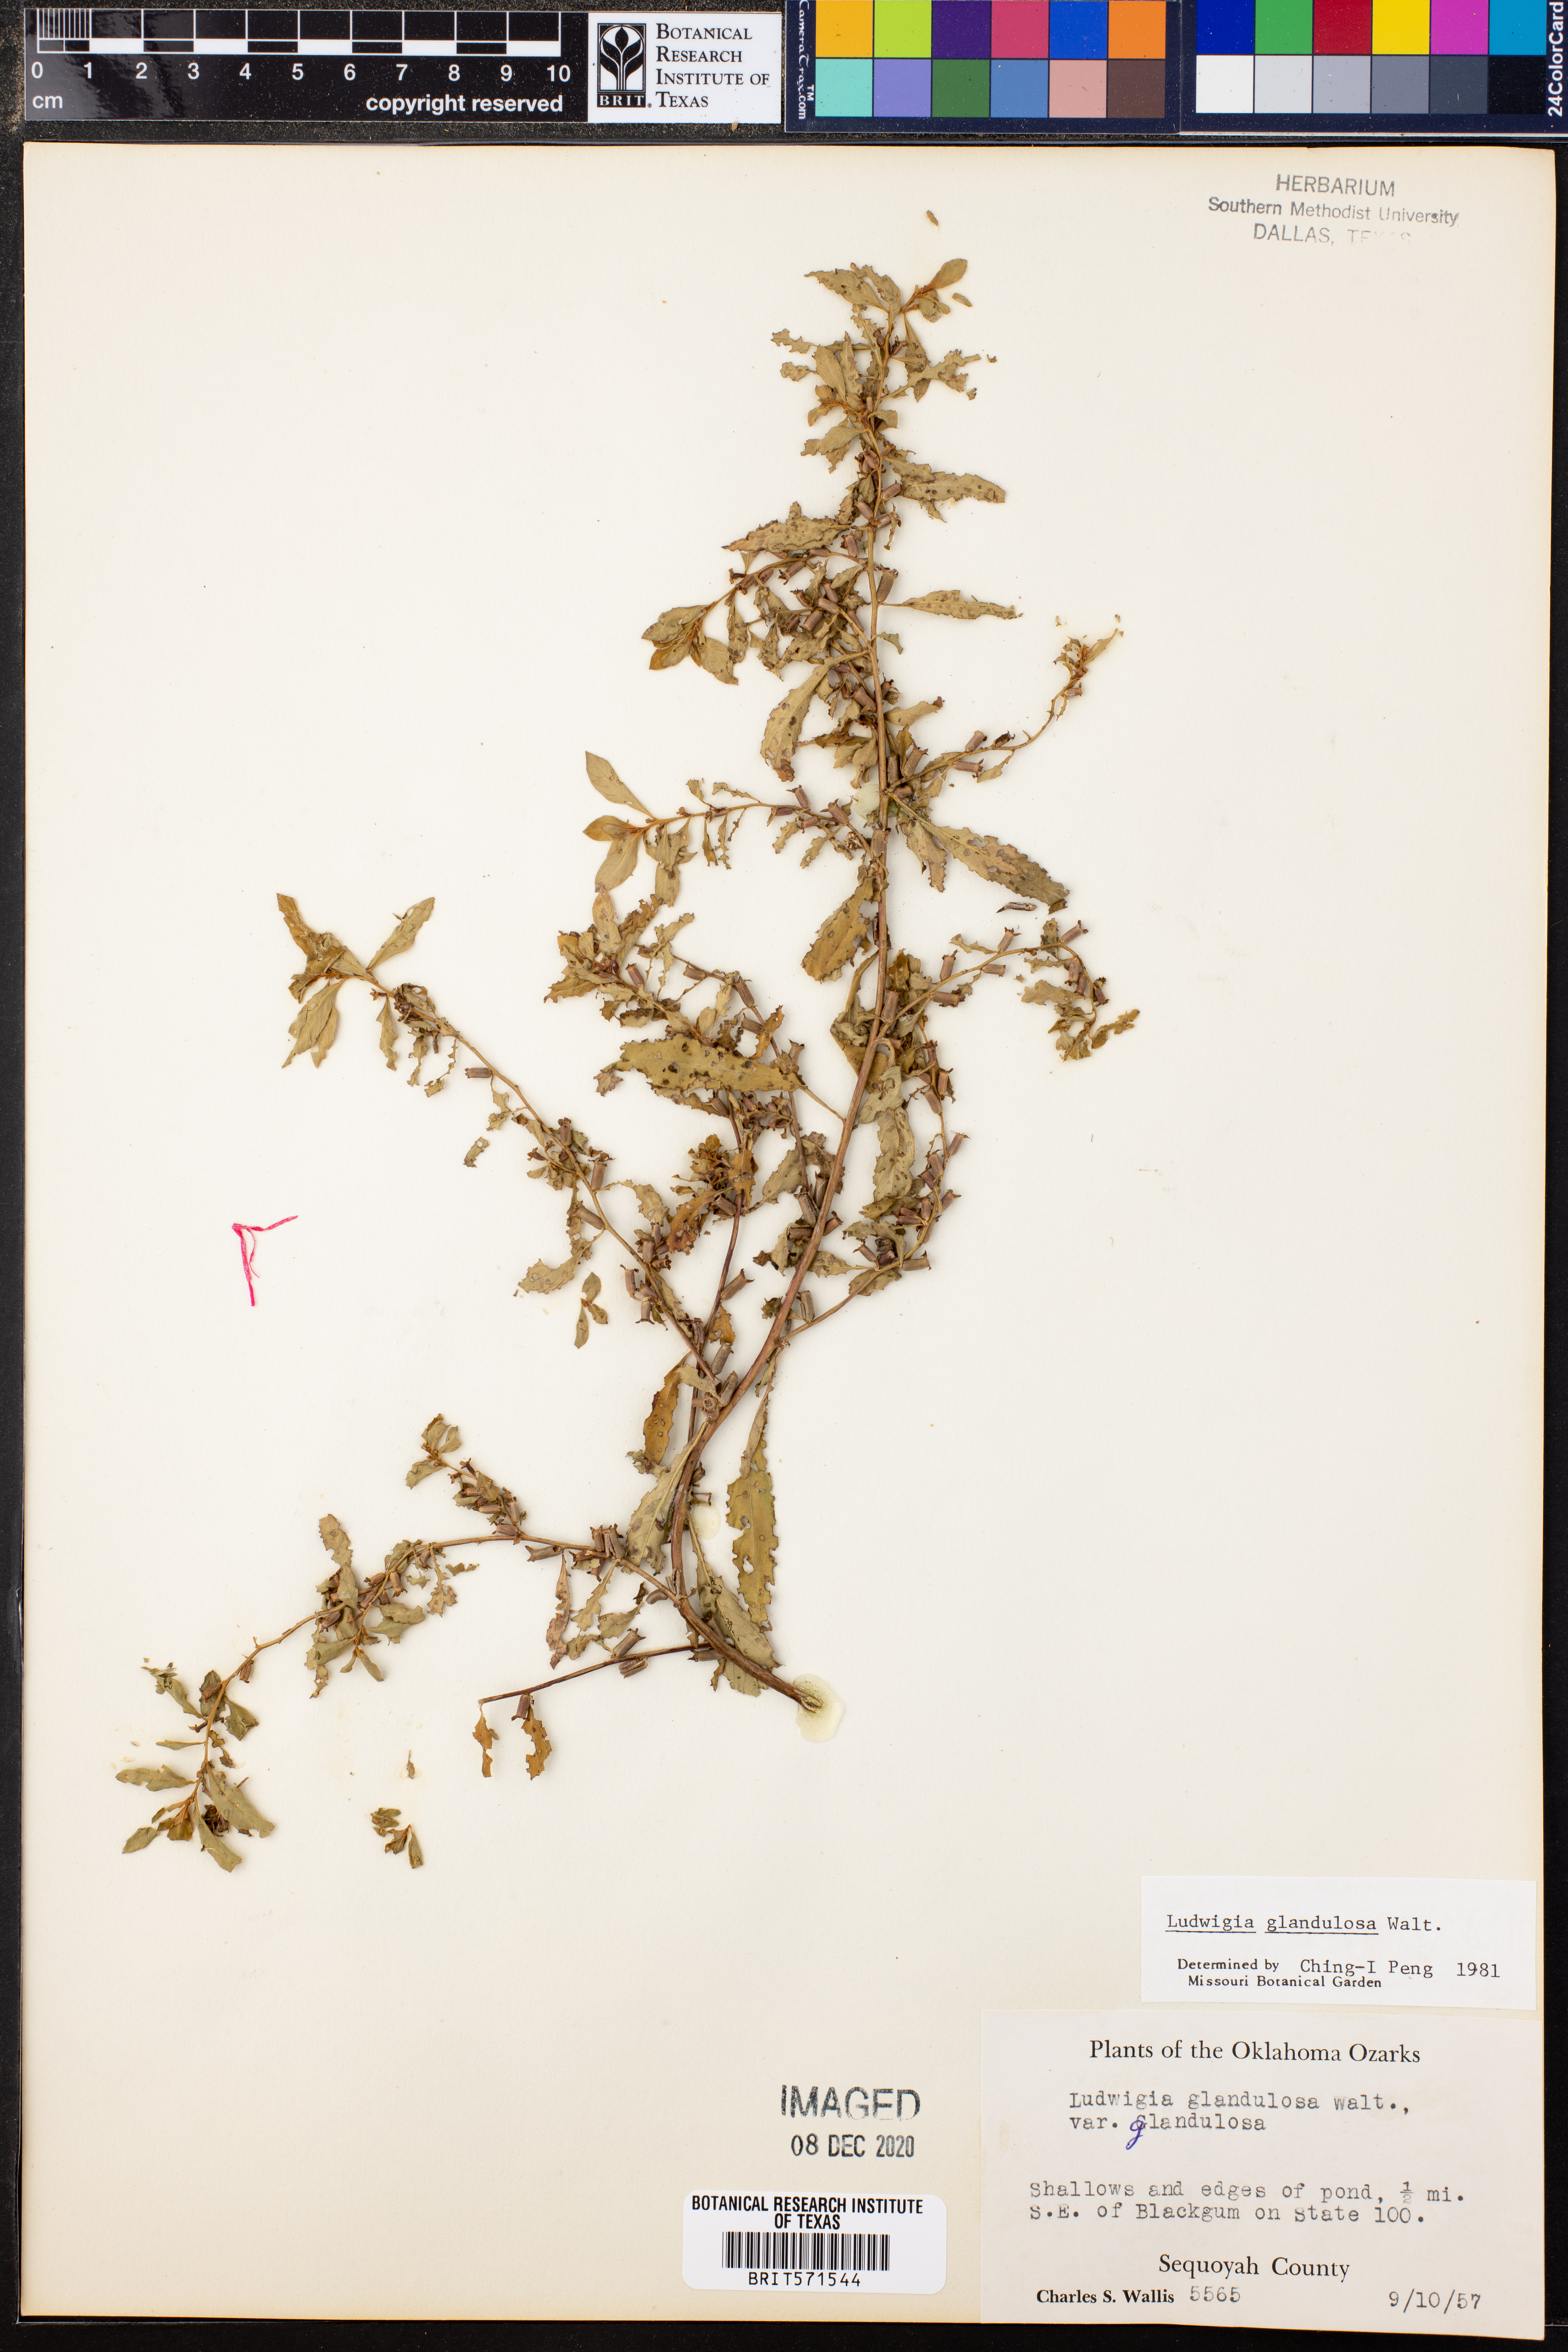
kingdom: Plantae
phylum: Tracheophyta
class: Magnoliopsida
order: Myrtales
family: Onagraceae
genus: Ludwigia
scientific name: Ludwigia glandulosa
